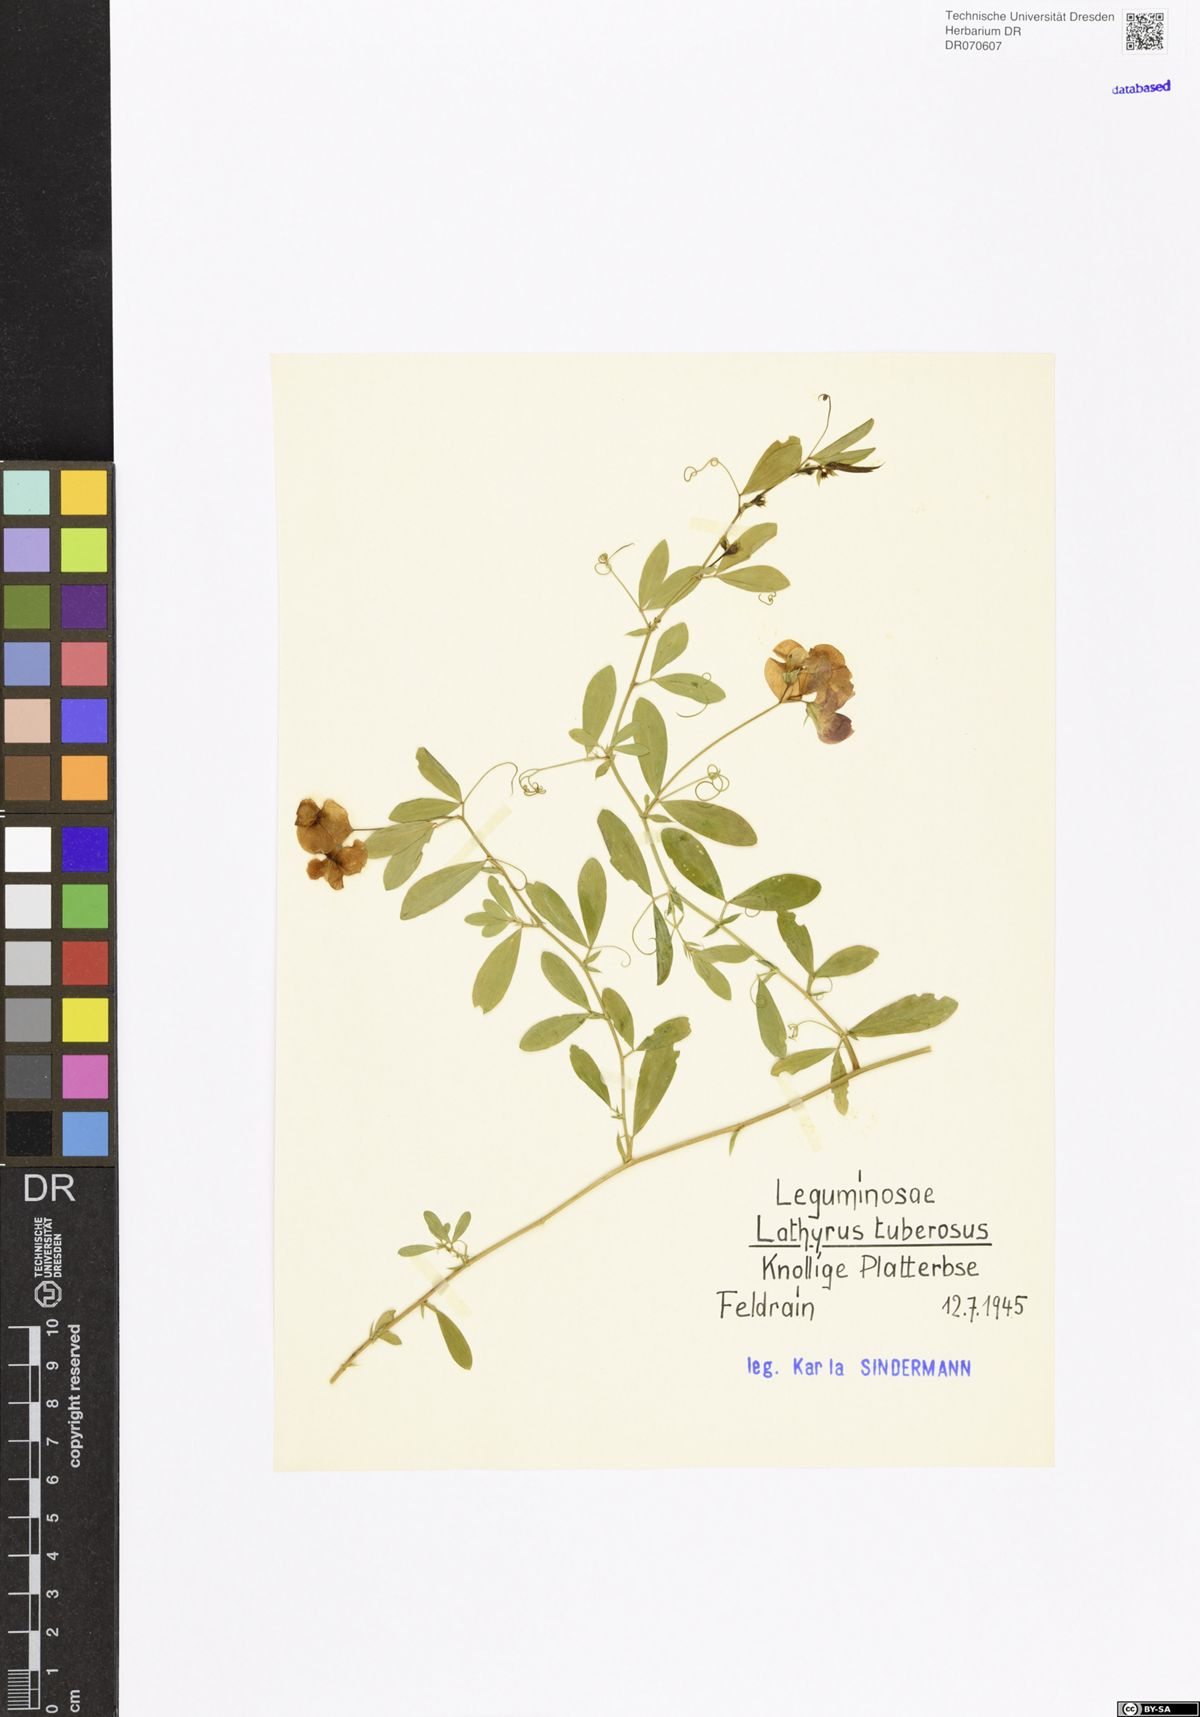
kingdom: Plantae
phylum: Tracheophyta
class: Magnoliopsida
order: Fabales
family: Fabaceae
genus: Lathyrus
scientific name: Lathyrus tuberosus
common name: Tuberous pea
